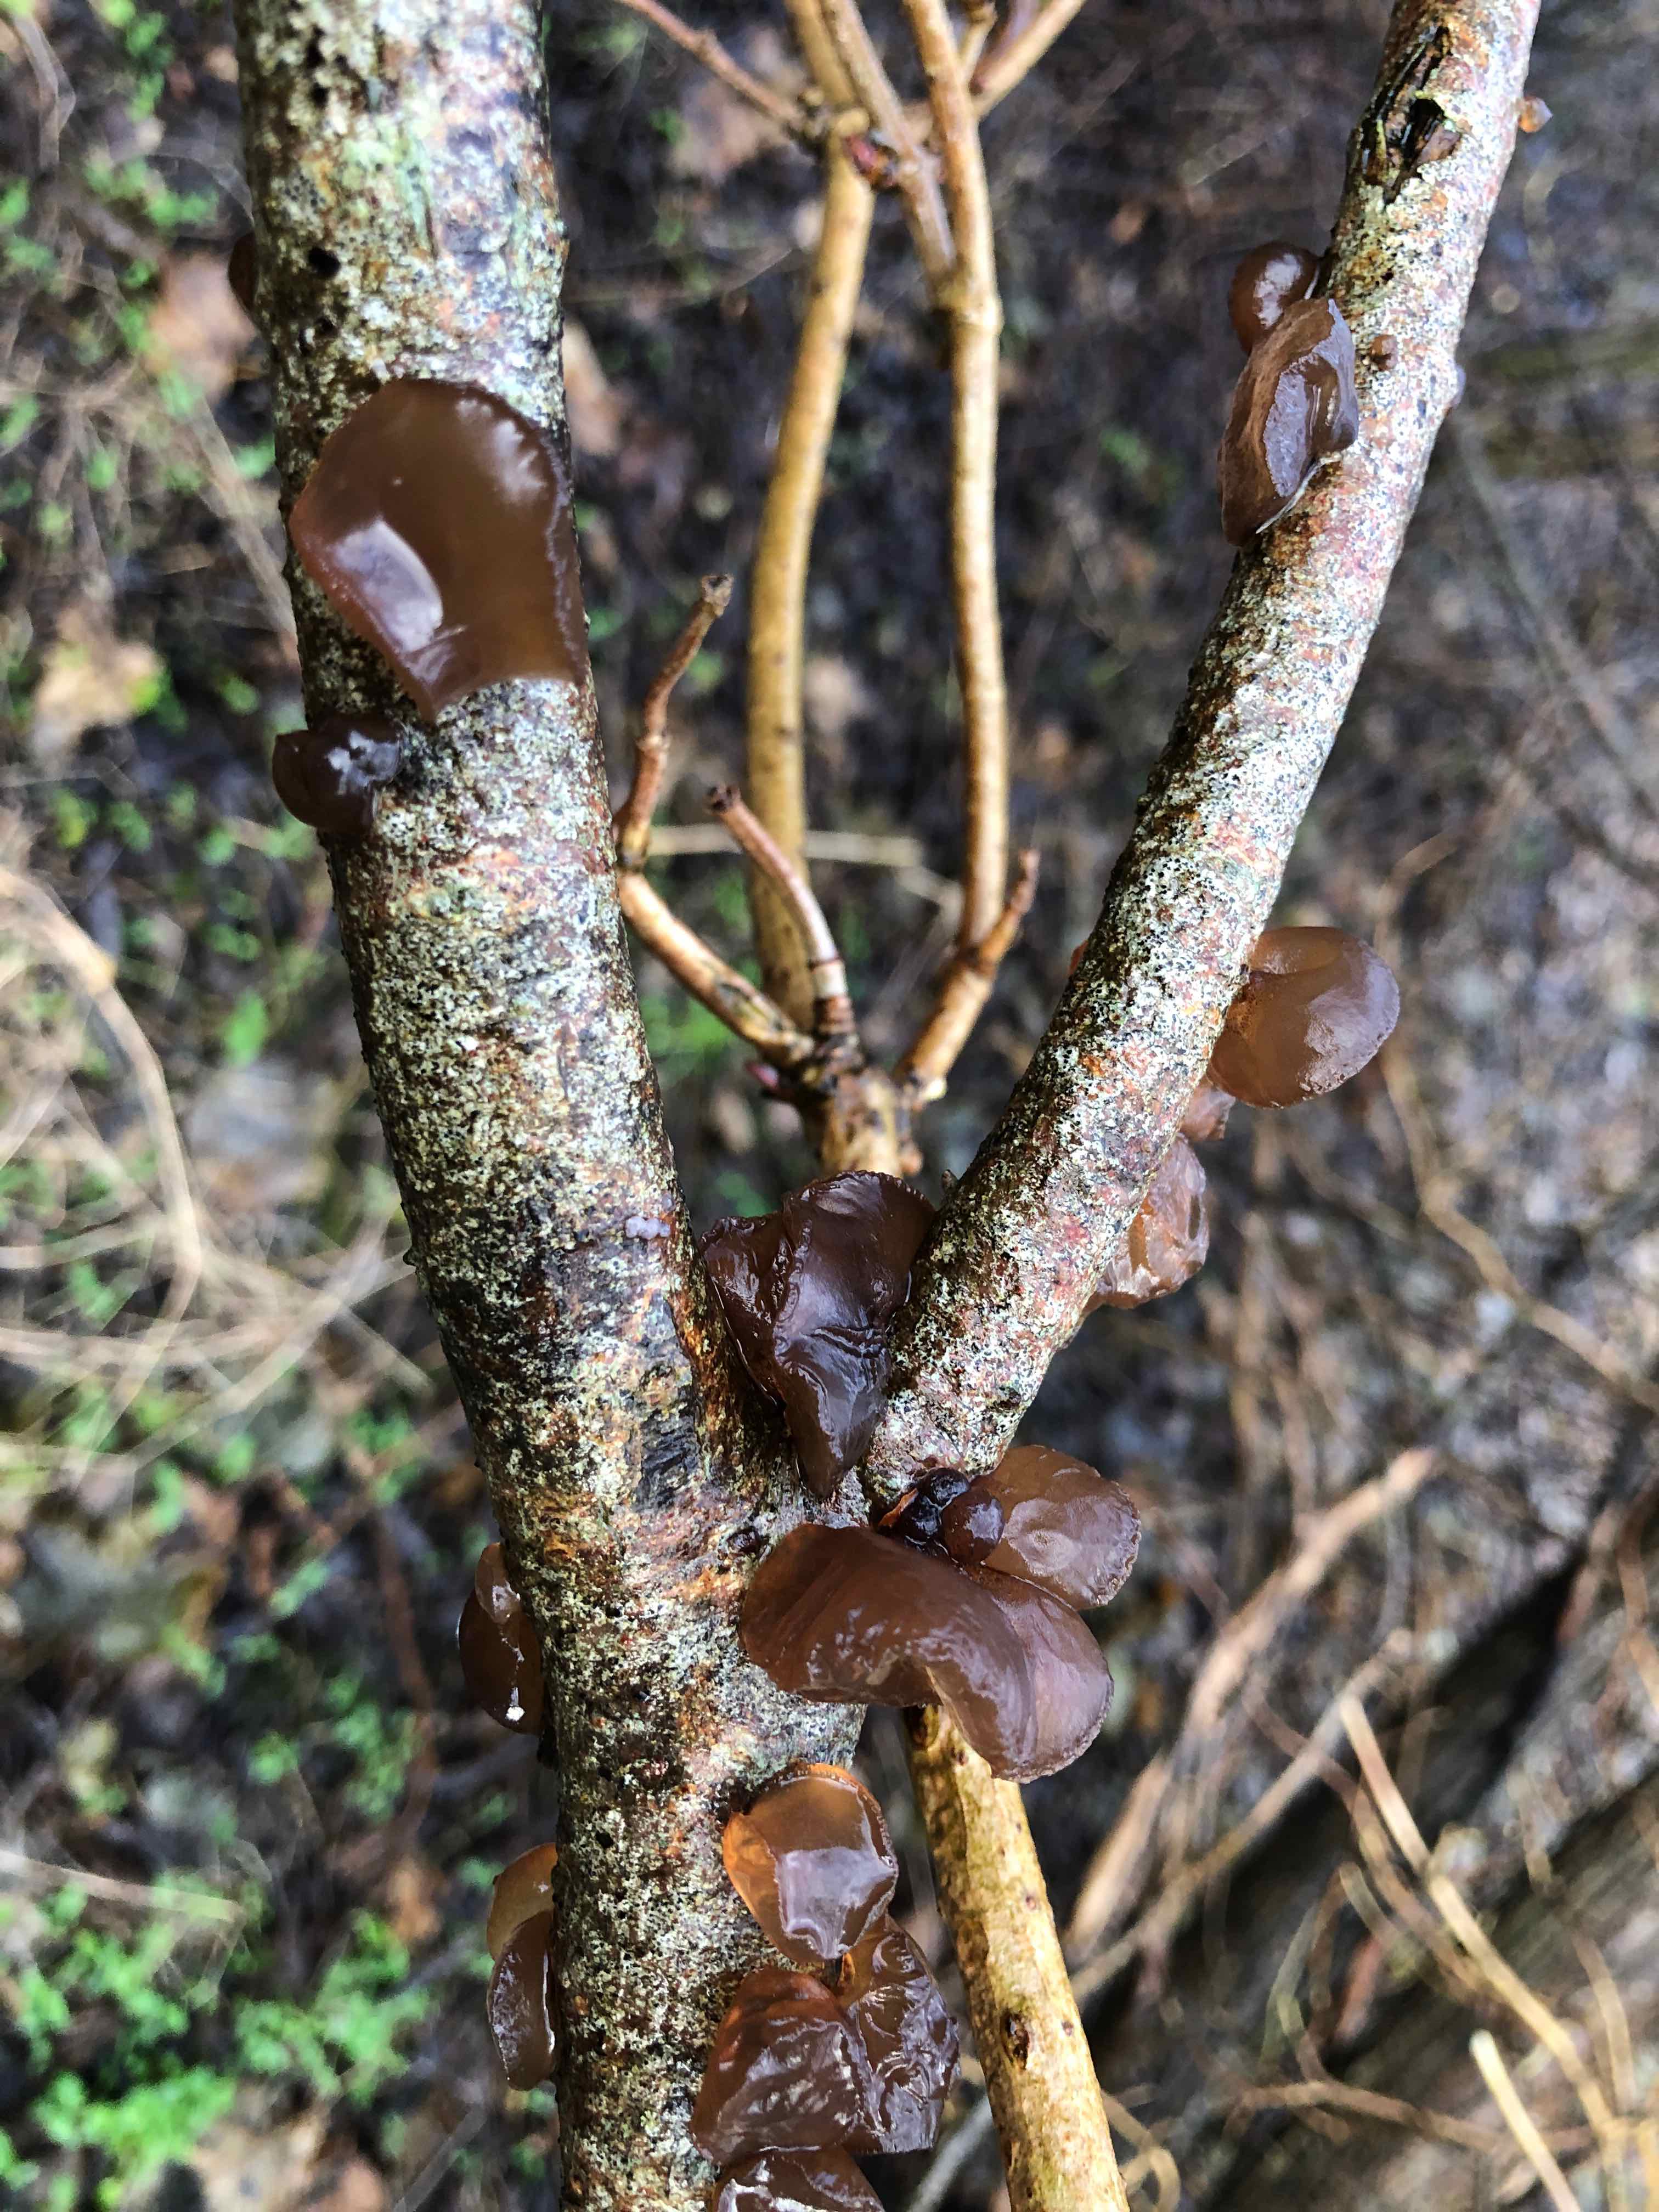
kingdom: Fungi
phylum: Basidiomycota
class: Agaricomycetes
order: Auriculariales
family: Auriculariaceae
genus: Exidia
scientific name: Exidia recisa
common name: pile-bævretop
